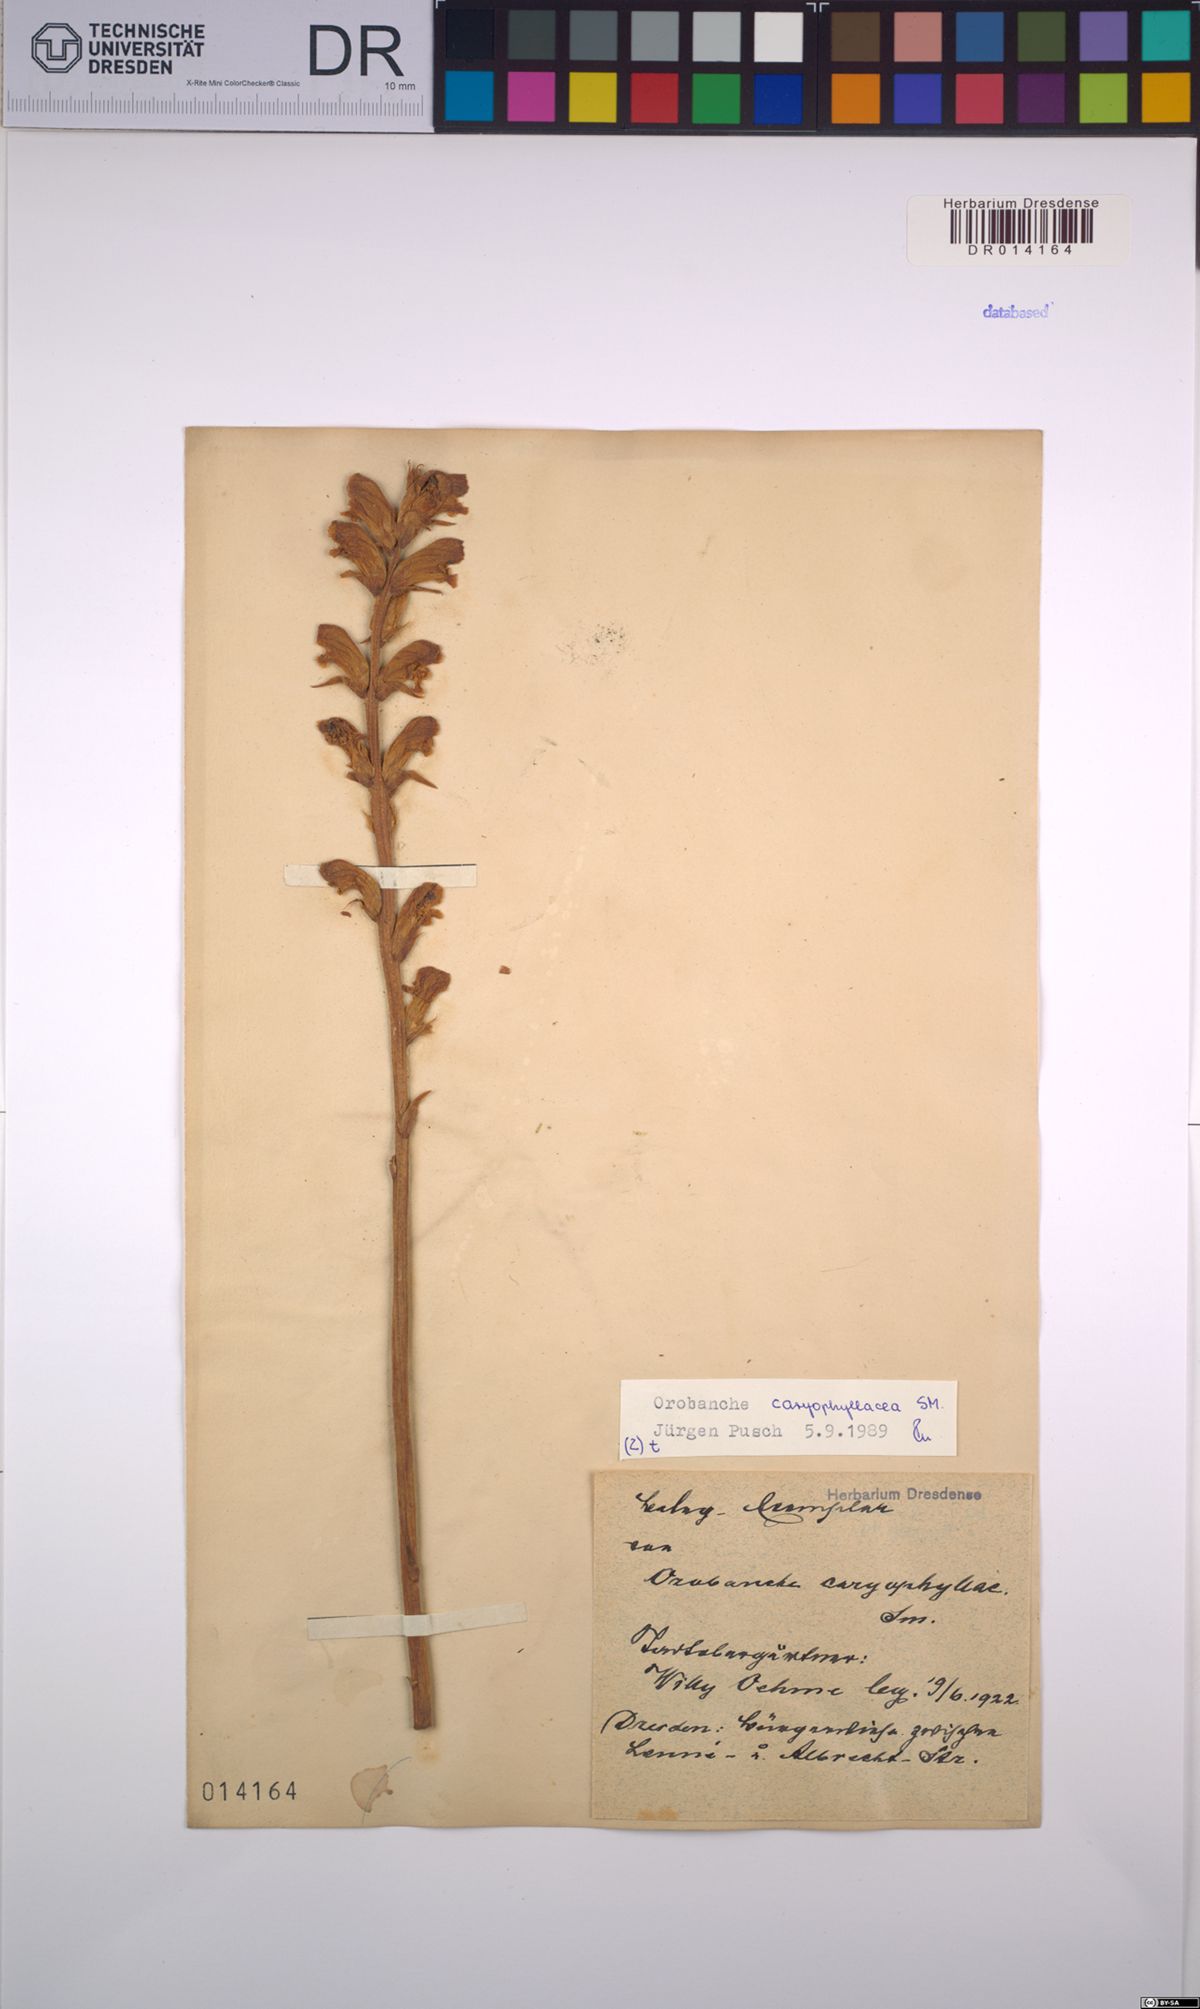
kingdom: Plantae
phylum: Tracheophyta
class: Magnoliopsida
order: Lamiales
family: Orobanchaceae
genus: Orobanche
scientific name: Orobanche caryophyllacea
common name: Bedstraw broomrape
